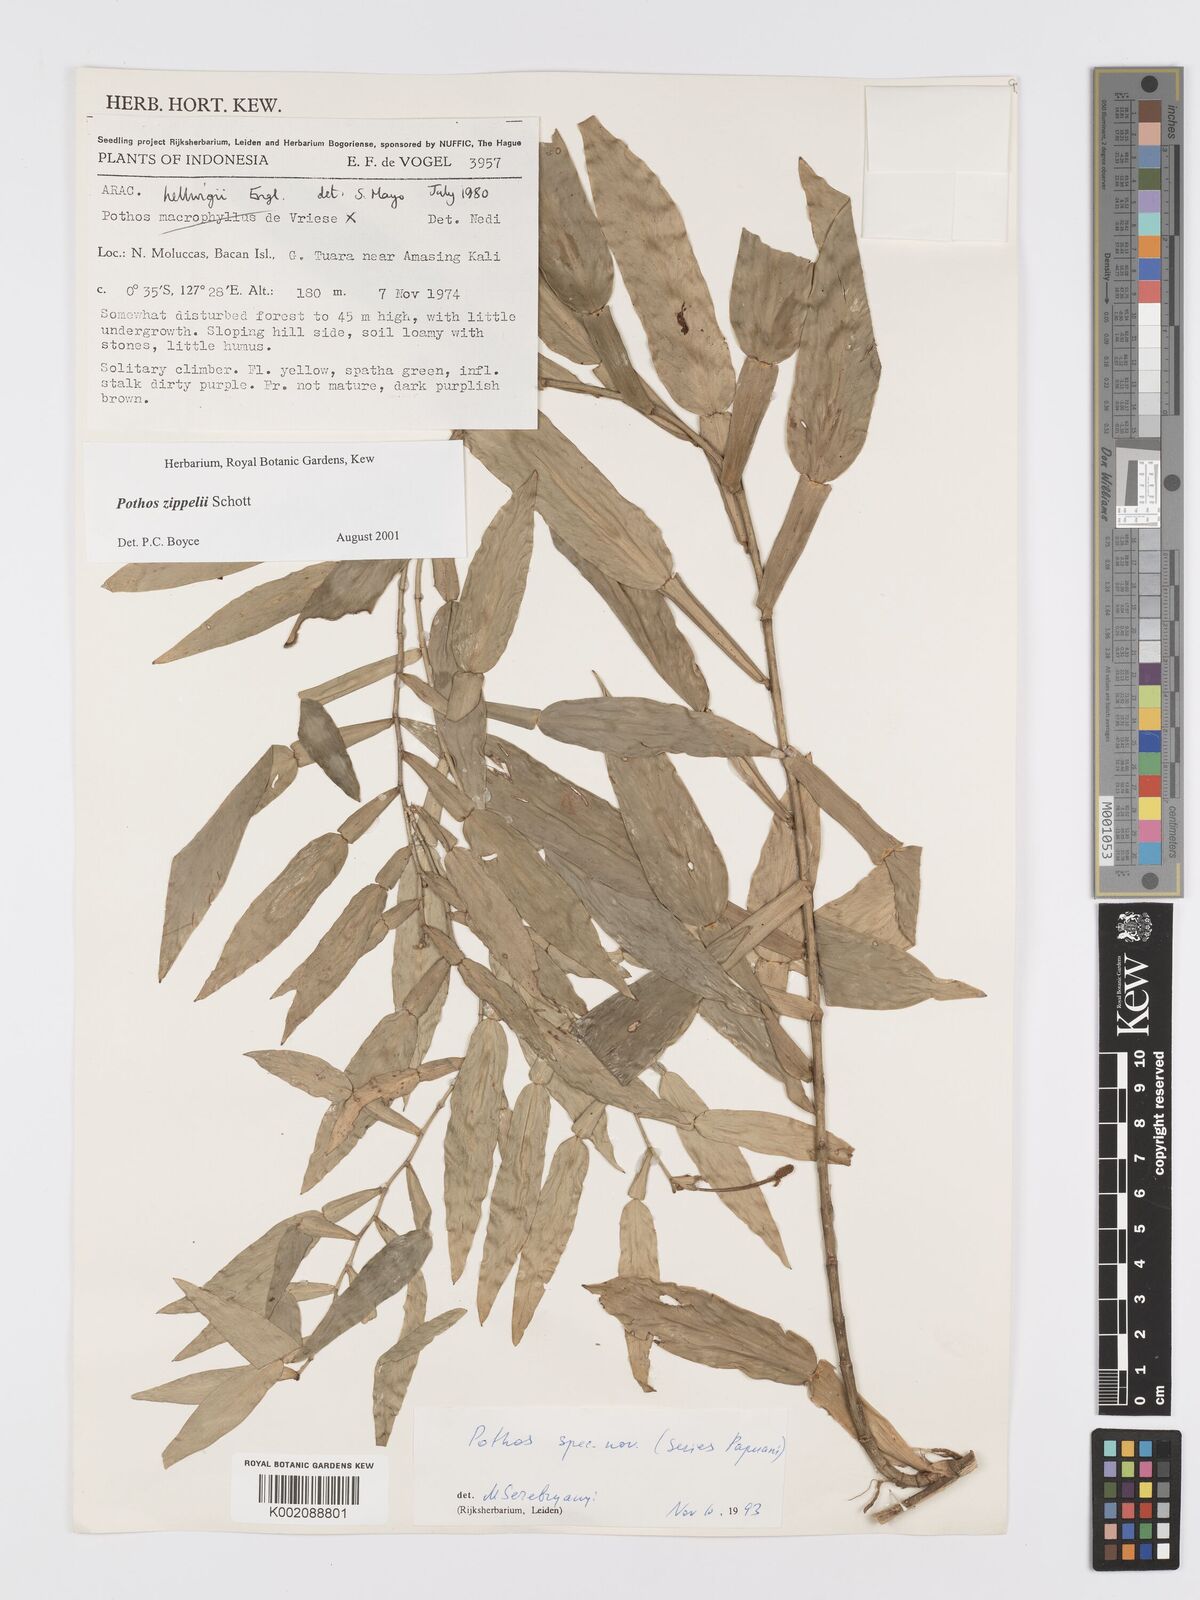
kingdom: Plantae
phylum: Tracheophyta
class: Liliopsida
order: Alismatales
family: Araceae
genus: Pothos
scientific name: Pothos zippelii
